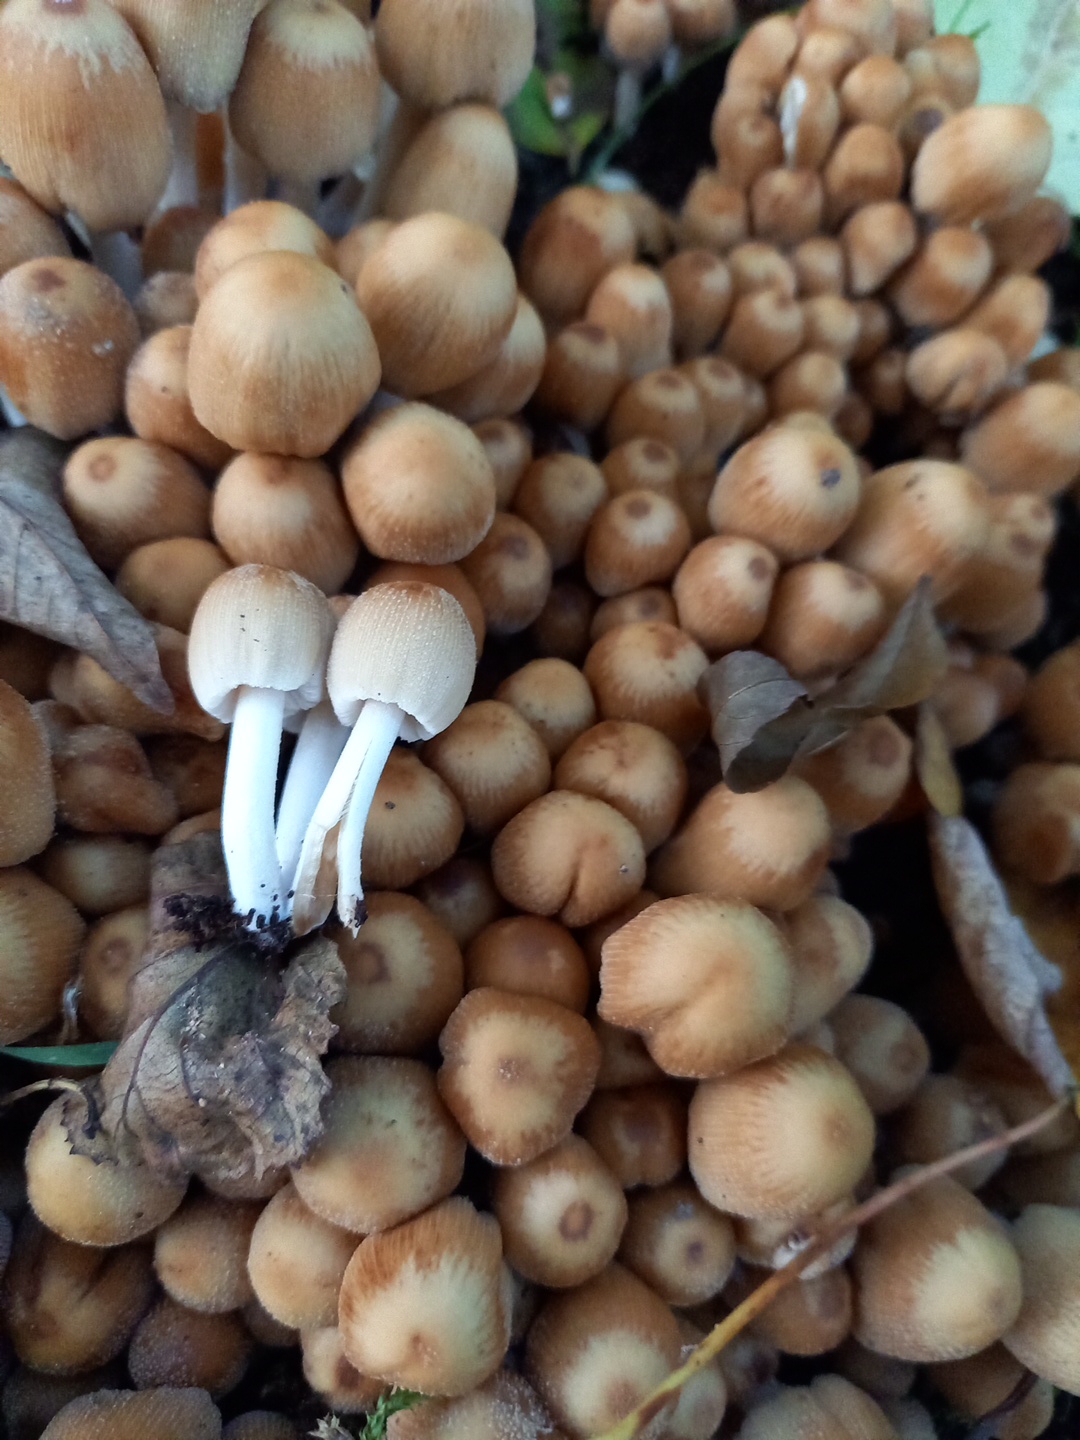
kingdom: Fungi
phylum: Basidiomycota
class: Agaricomycetes
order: Agaricales
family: Psathyrellaceae
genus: Coprinellus
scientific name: Coprinellus micaceus
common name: glimmer-blækhat
